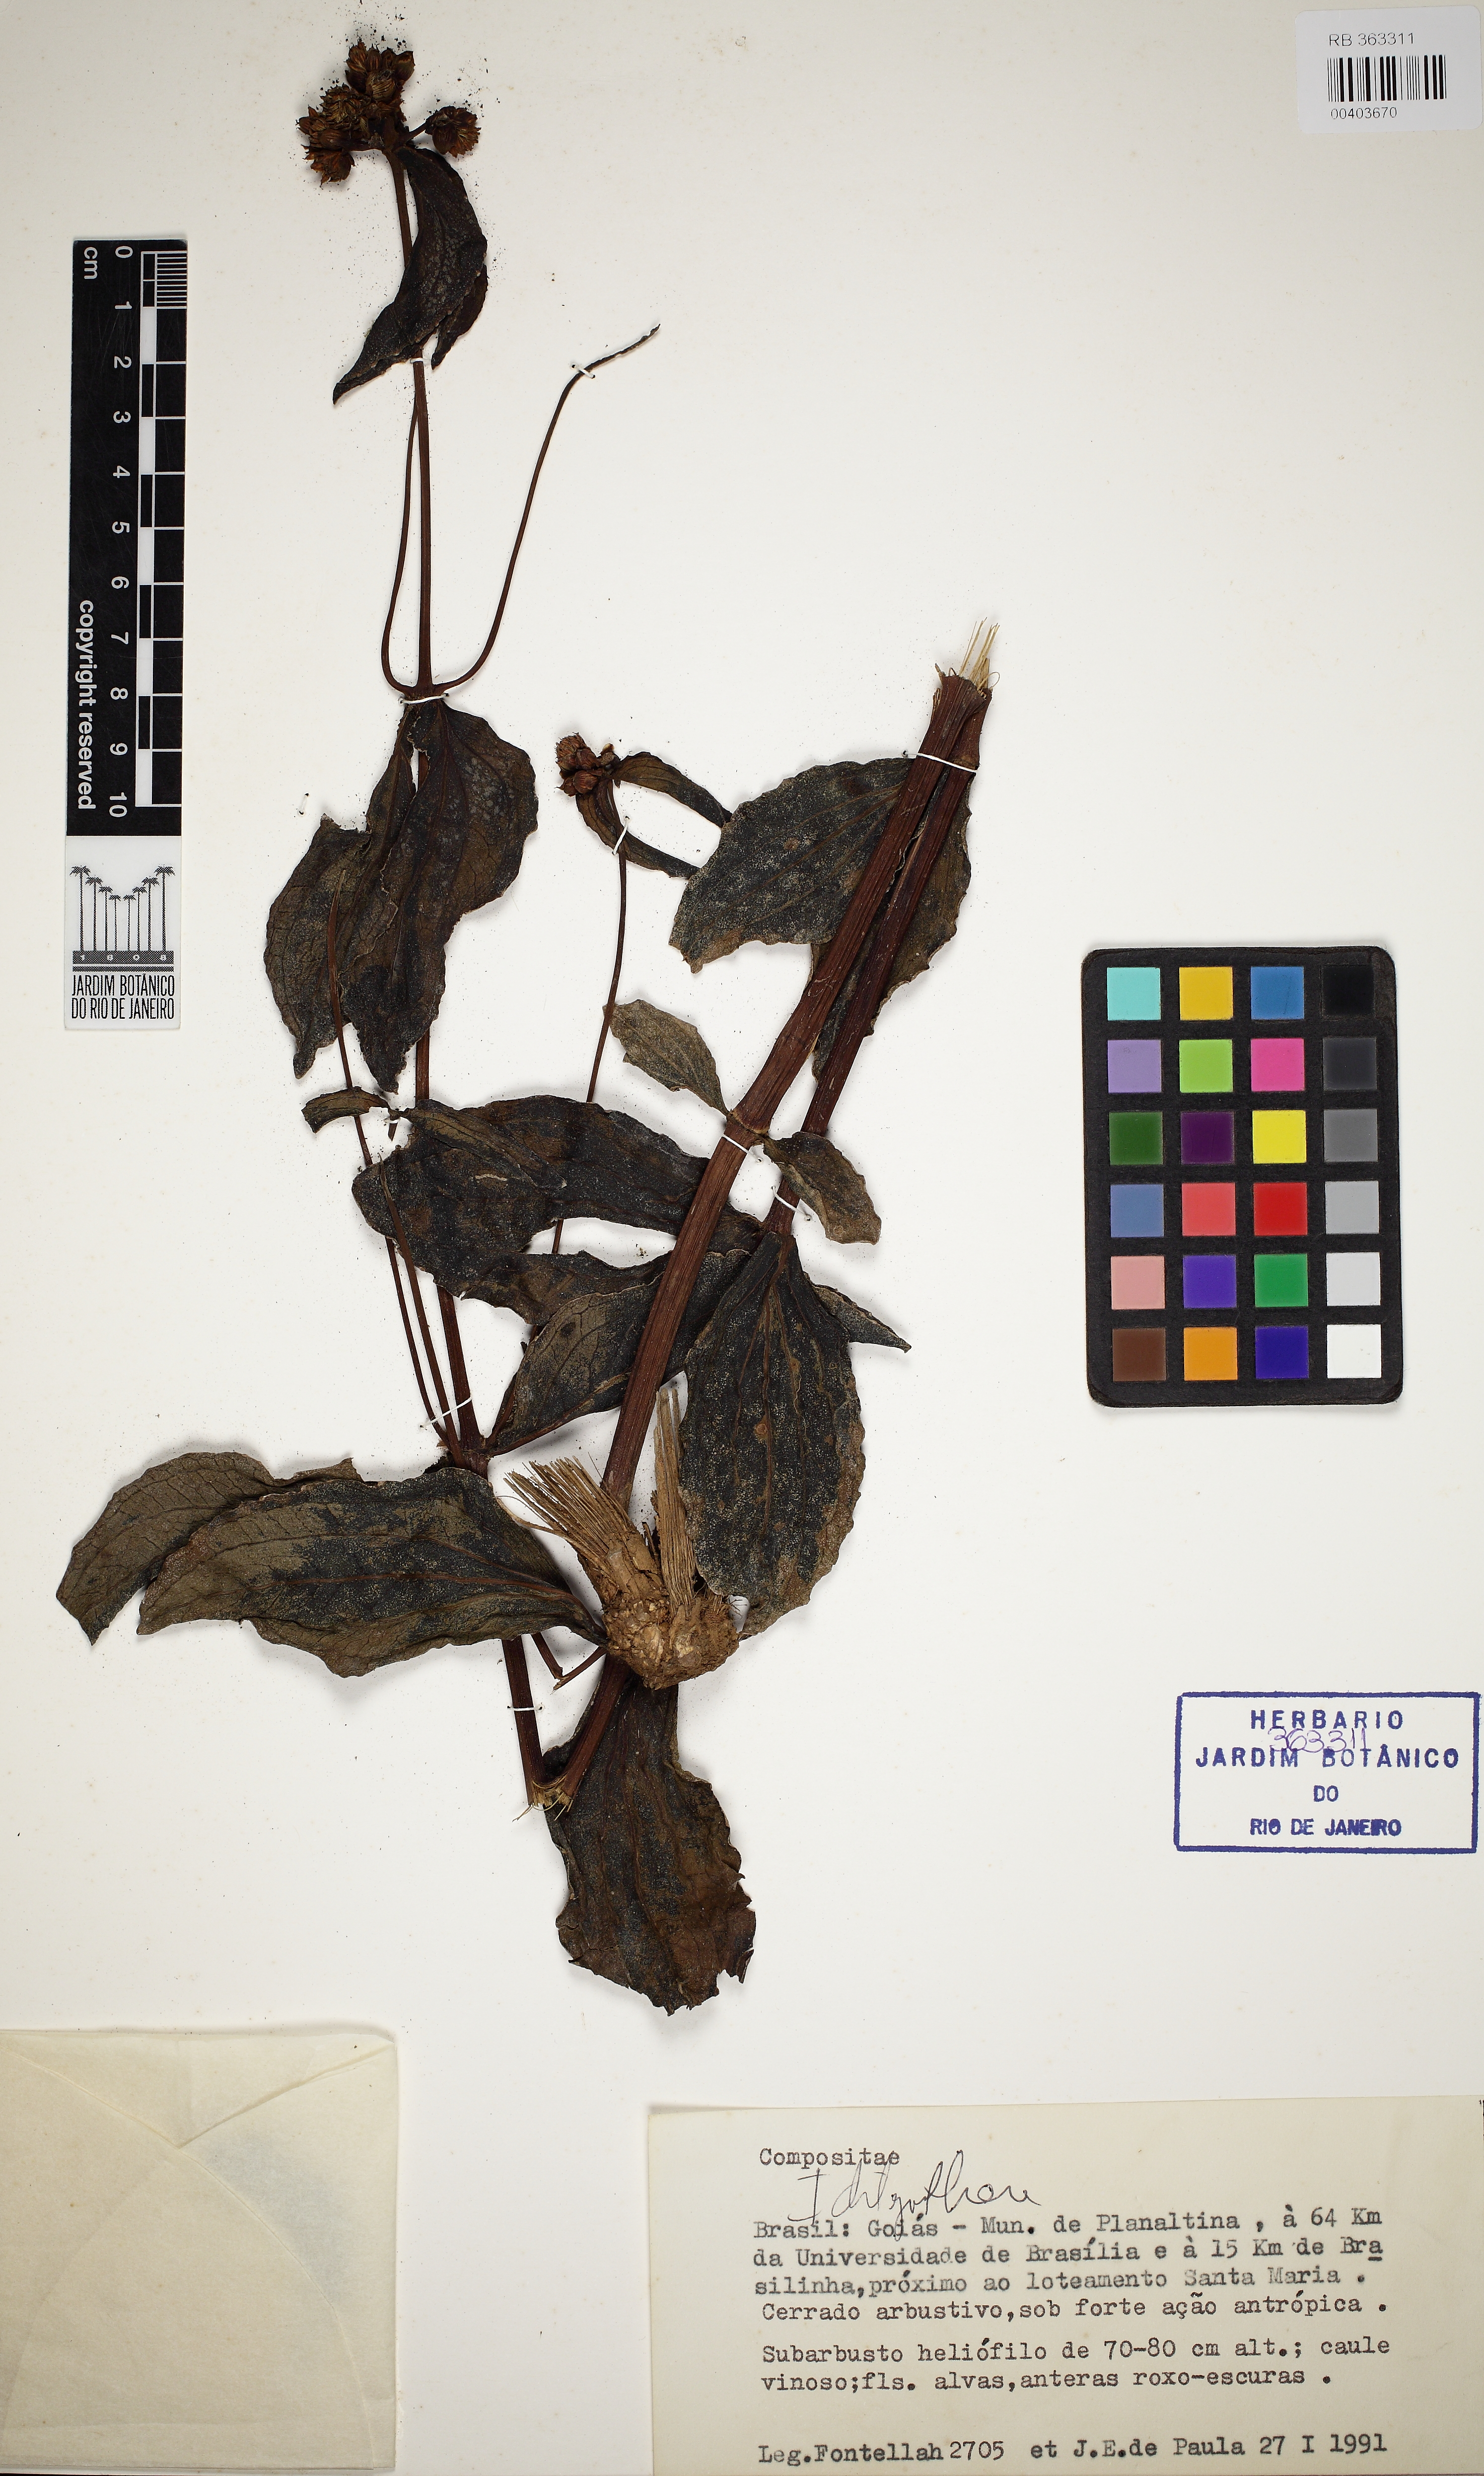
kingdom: Plantae
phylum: Tracheophyta
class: Magnoliopsida
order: Asterales
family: Asteraceae
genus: Ichthyothere
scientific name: Ichthyothere
